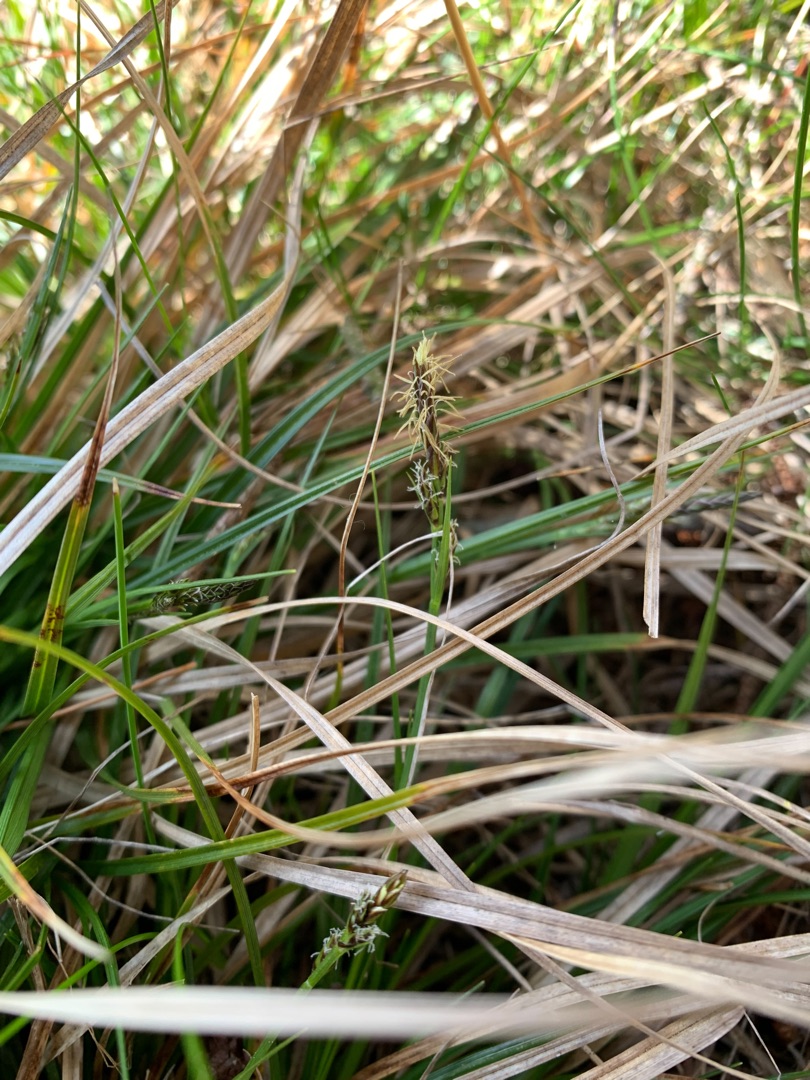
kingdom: Plantae
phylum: Tracheophyta
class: Liliopsida
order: Poales
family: Cyperaceae
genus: Carex
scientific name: Carex pilulifera
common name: Pille-star
